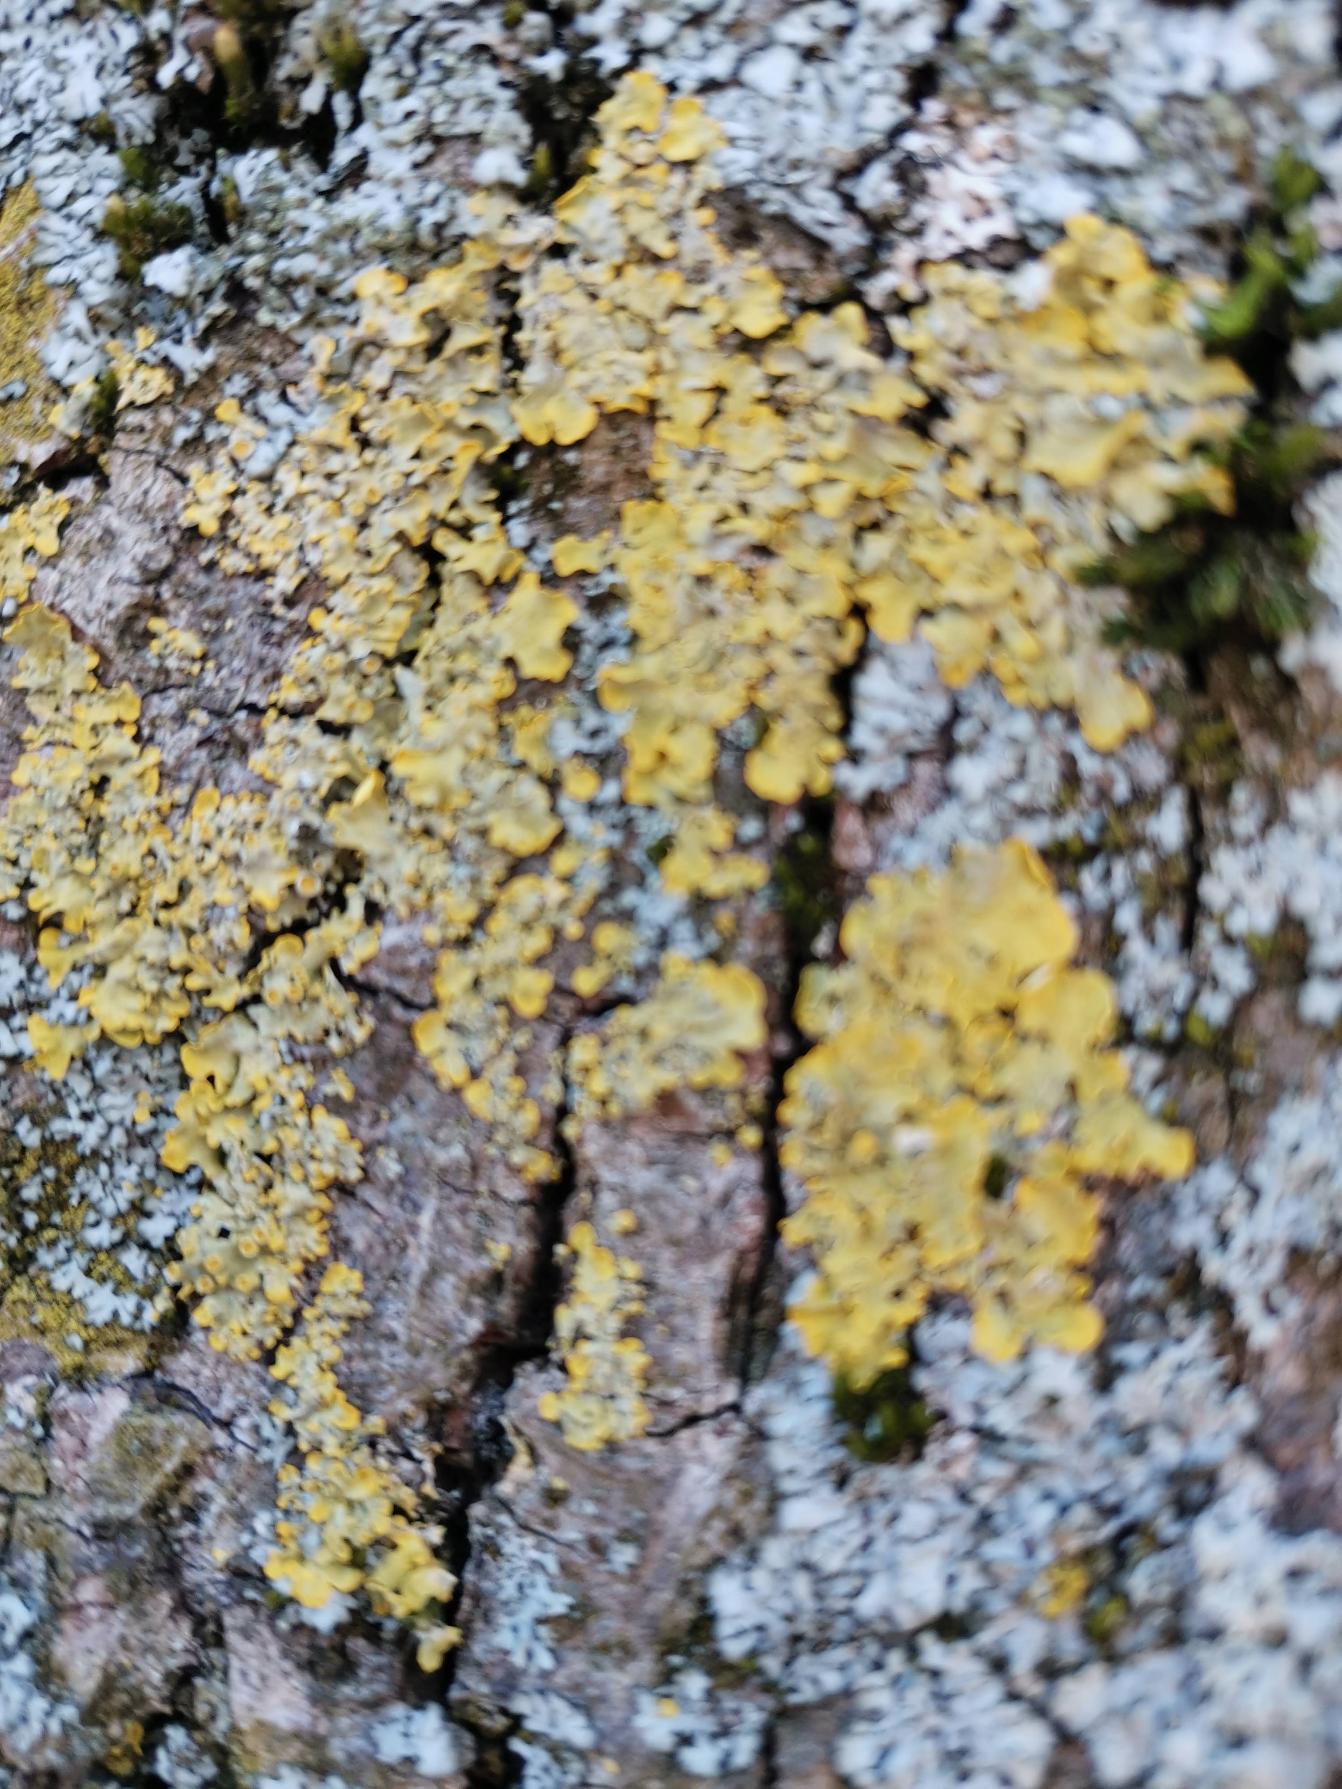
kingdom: Fungi
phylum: Ascomycota
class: Lecanoromycetes
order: Teloschistales
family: Teloschistaceae
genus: Xanthoria
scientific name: Xanthoria parietina
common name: Almindelig væggelav
